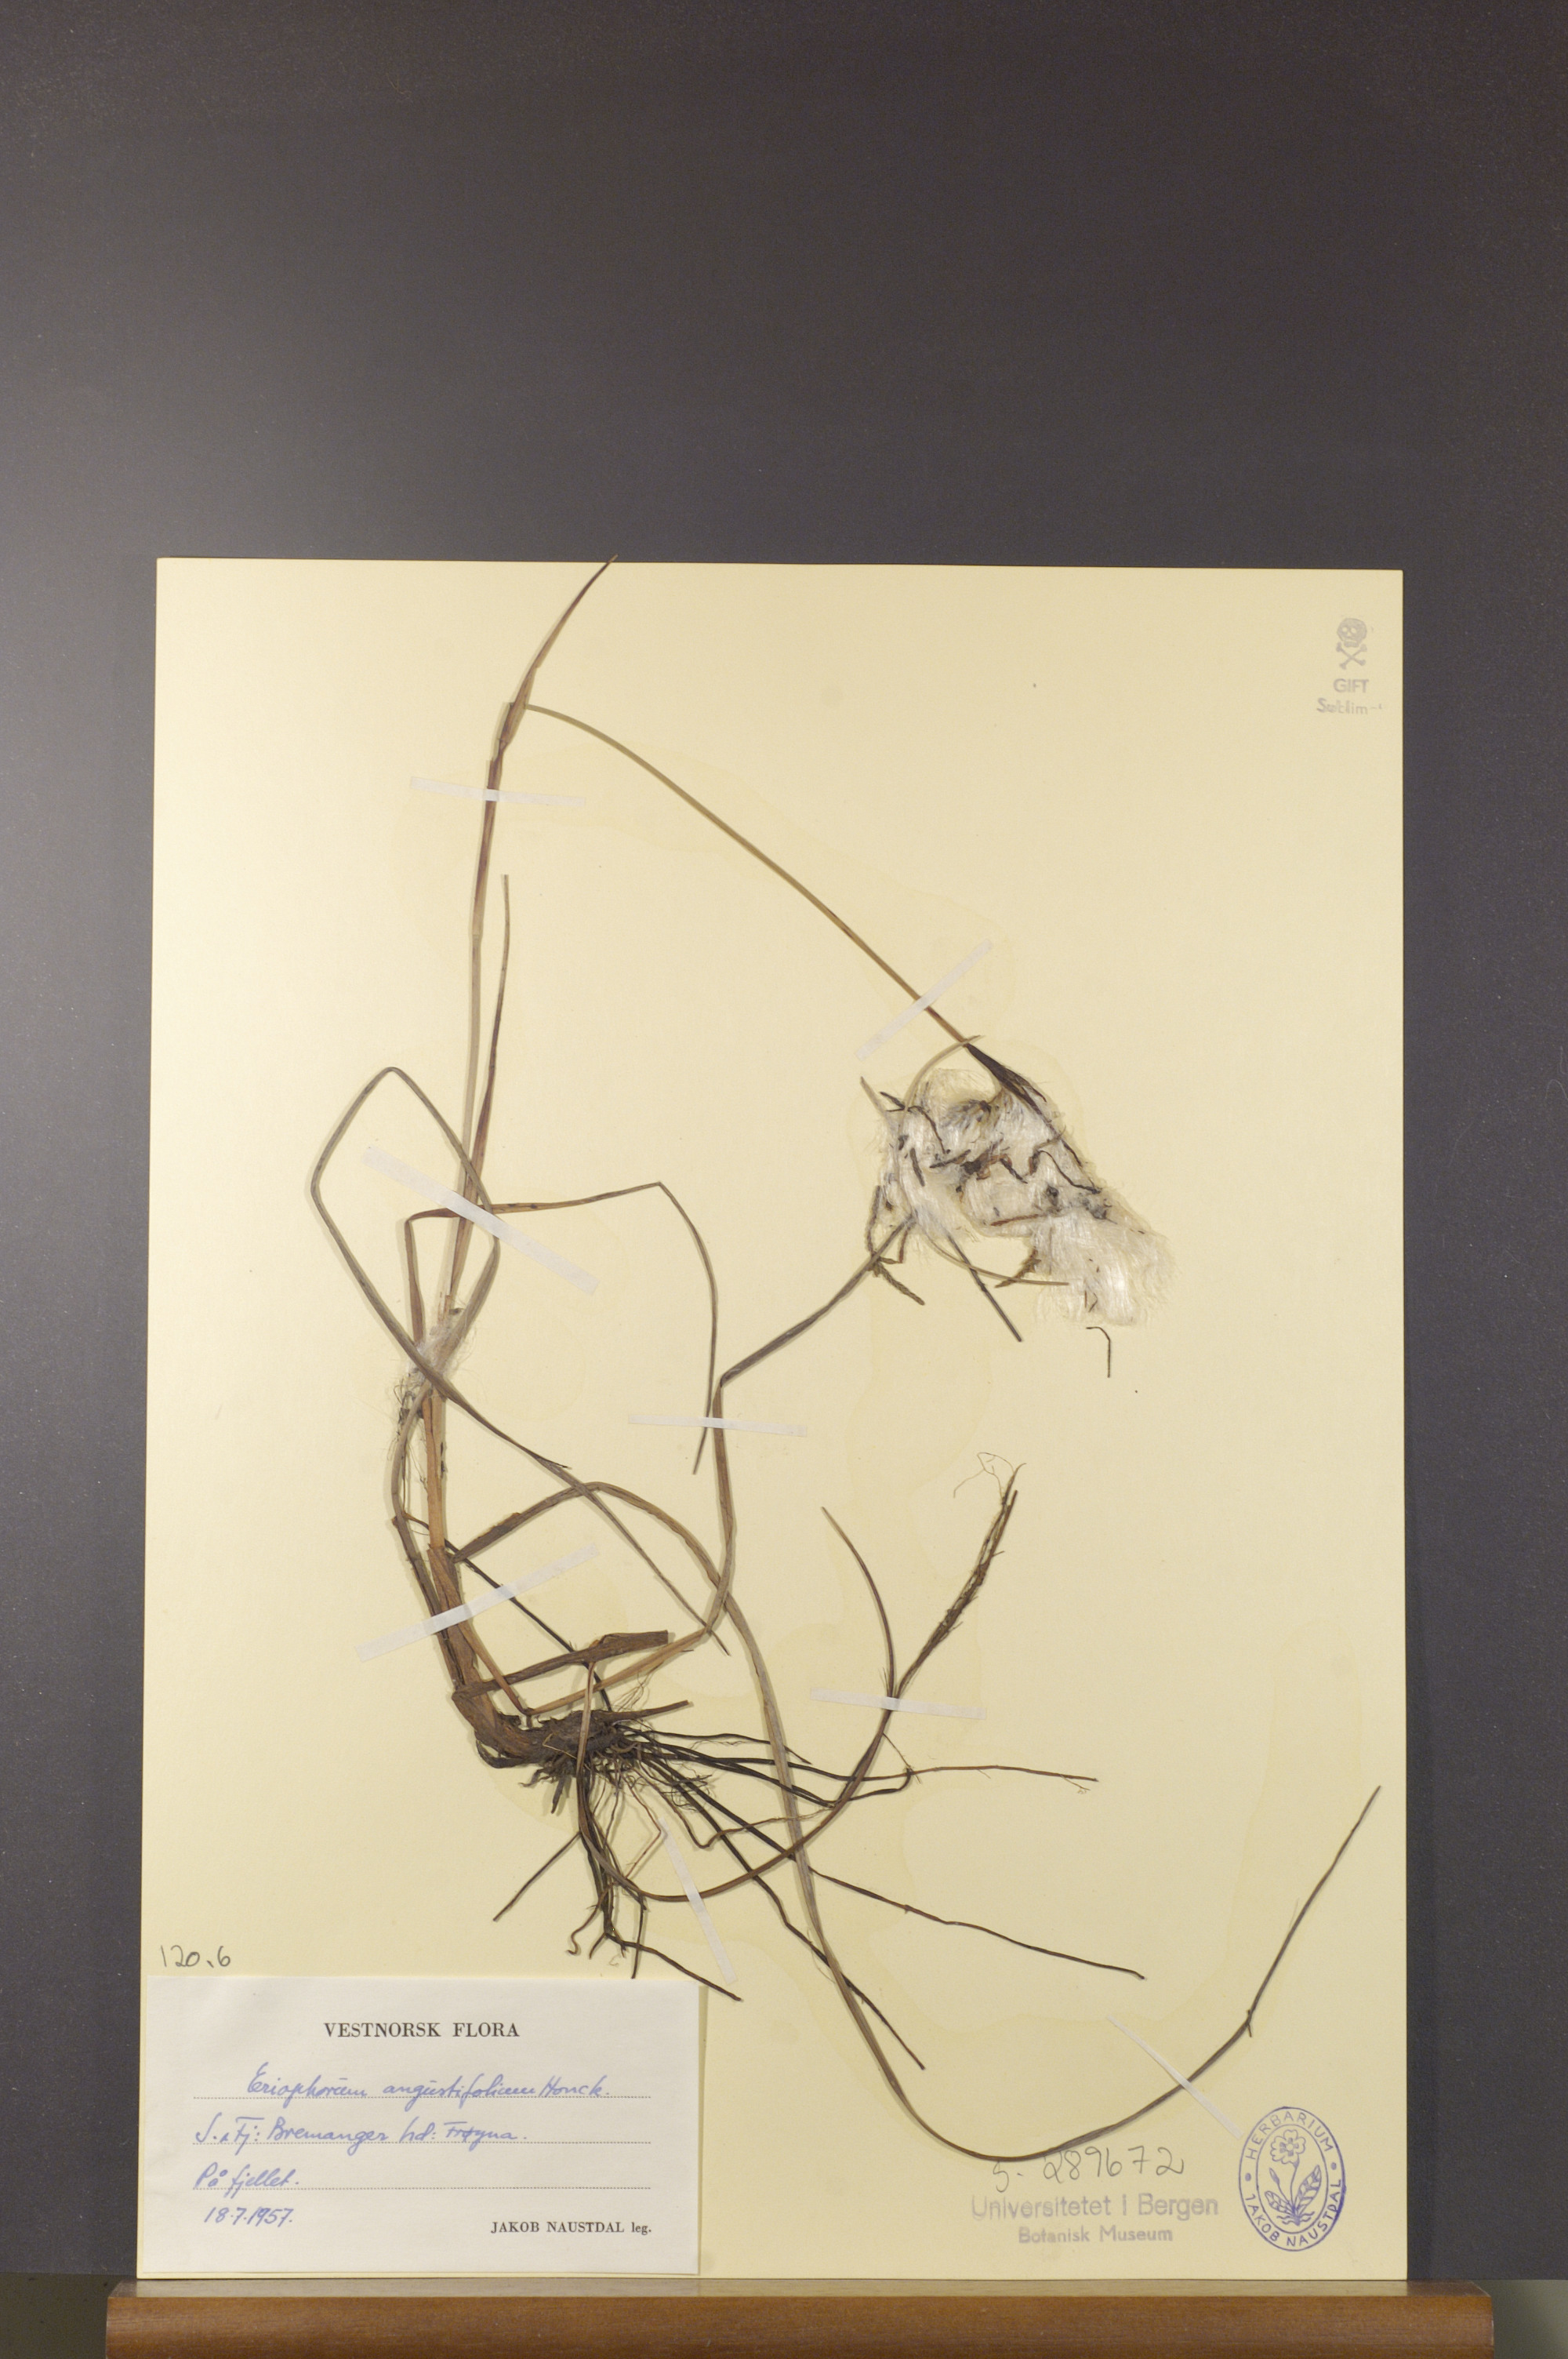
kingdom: Plantae
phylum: Tracheophyta
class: Liliopsida
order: Poales
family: Cyperaceae
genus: Eriophorum
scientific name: Eriophorum angustifolium
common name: Common cottongrass
